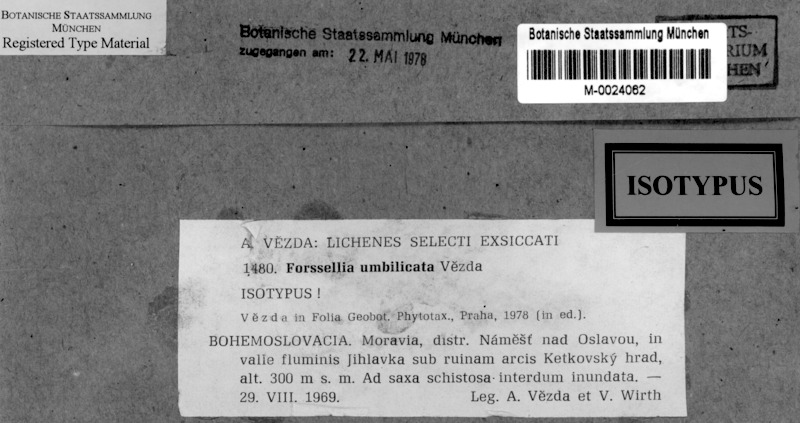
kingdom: Fungi
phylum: Ascomycota
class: Lichinomycetes
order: Lichinales
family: Lichinaceae
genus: Pterygiopsis
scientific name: Pterygiopsis umbilicata
